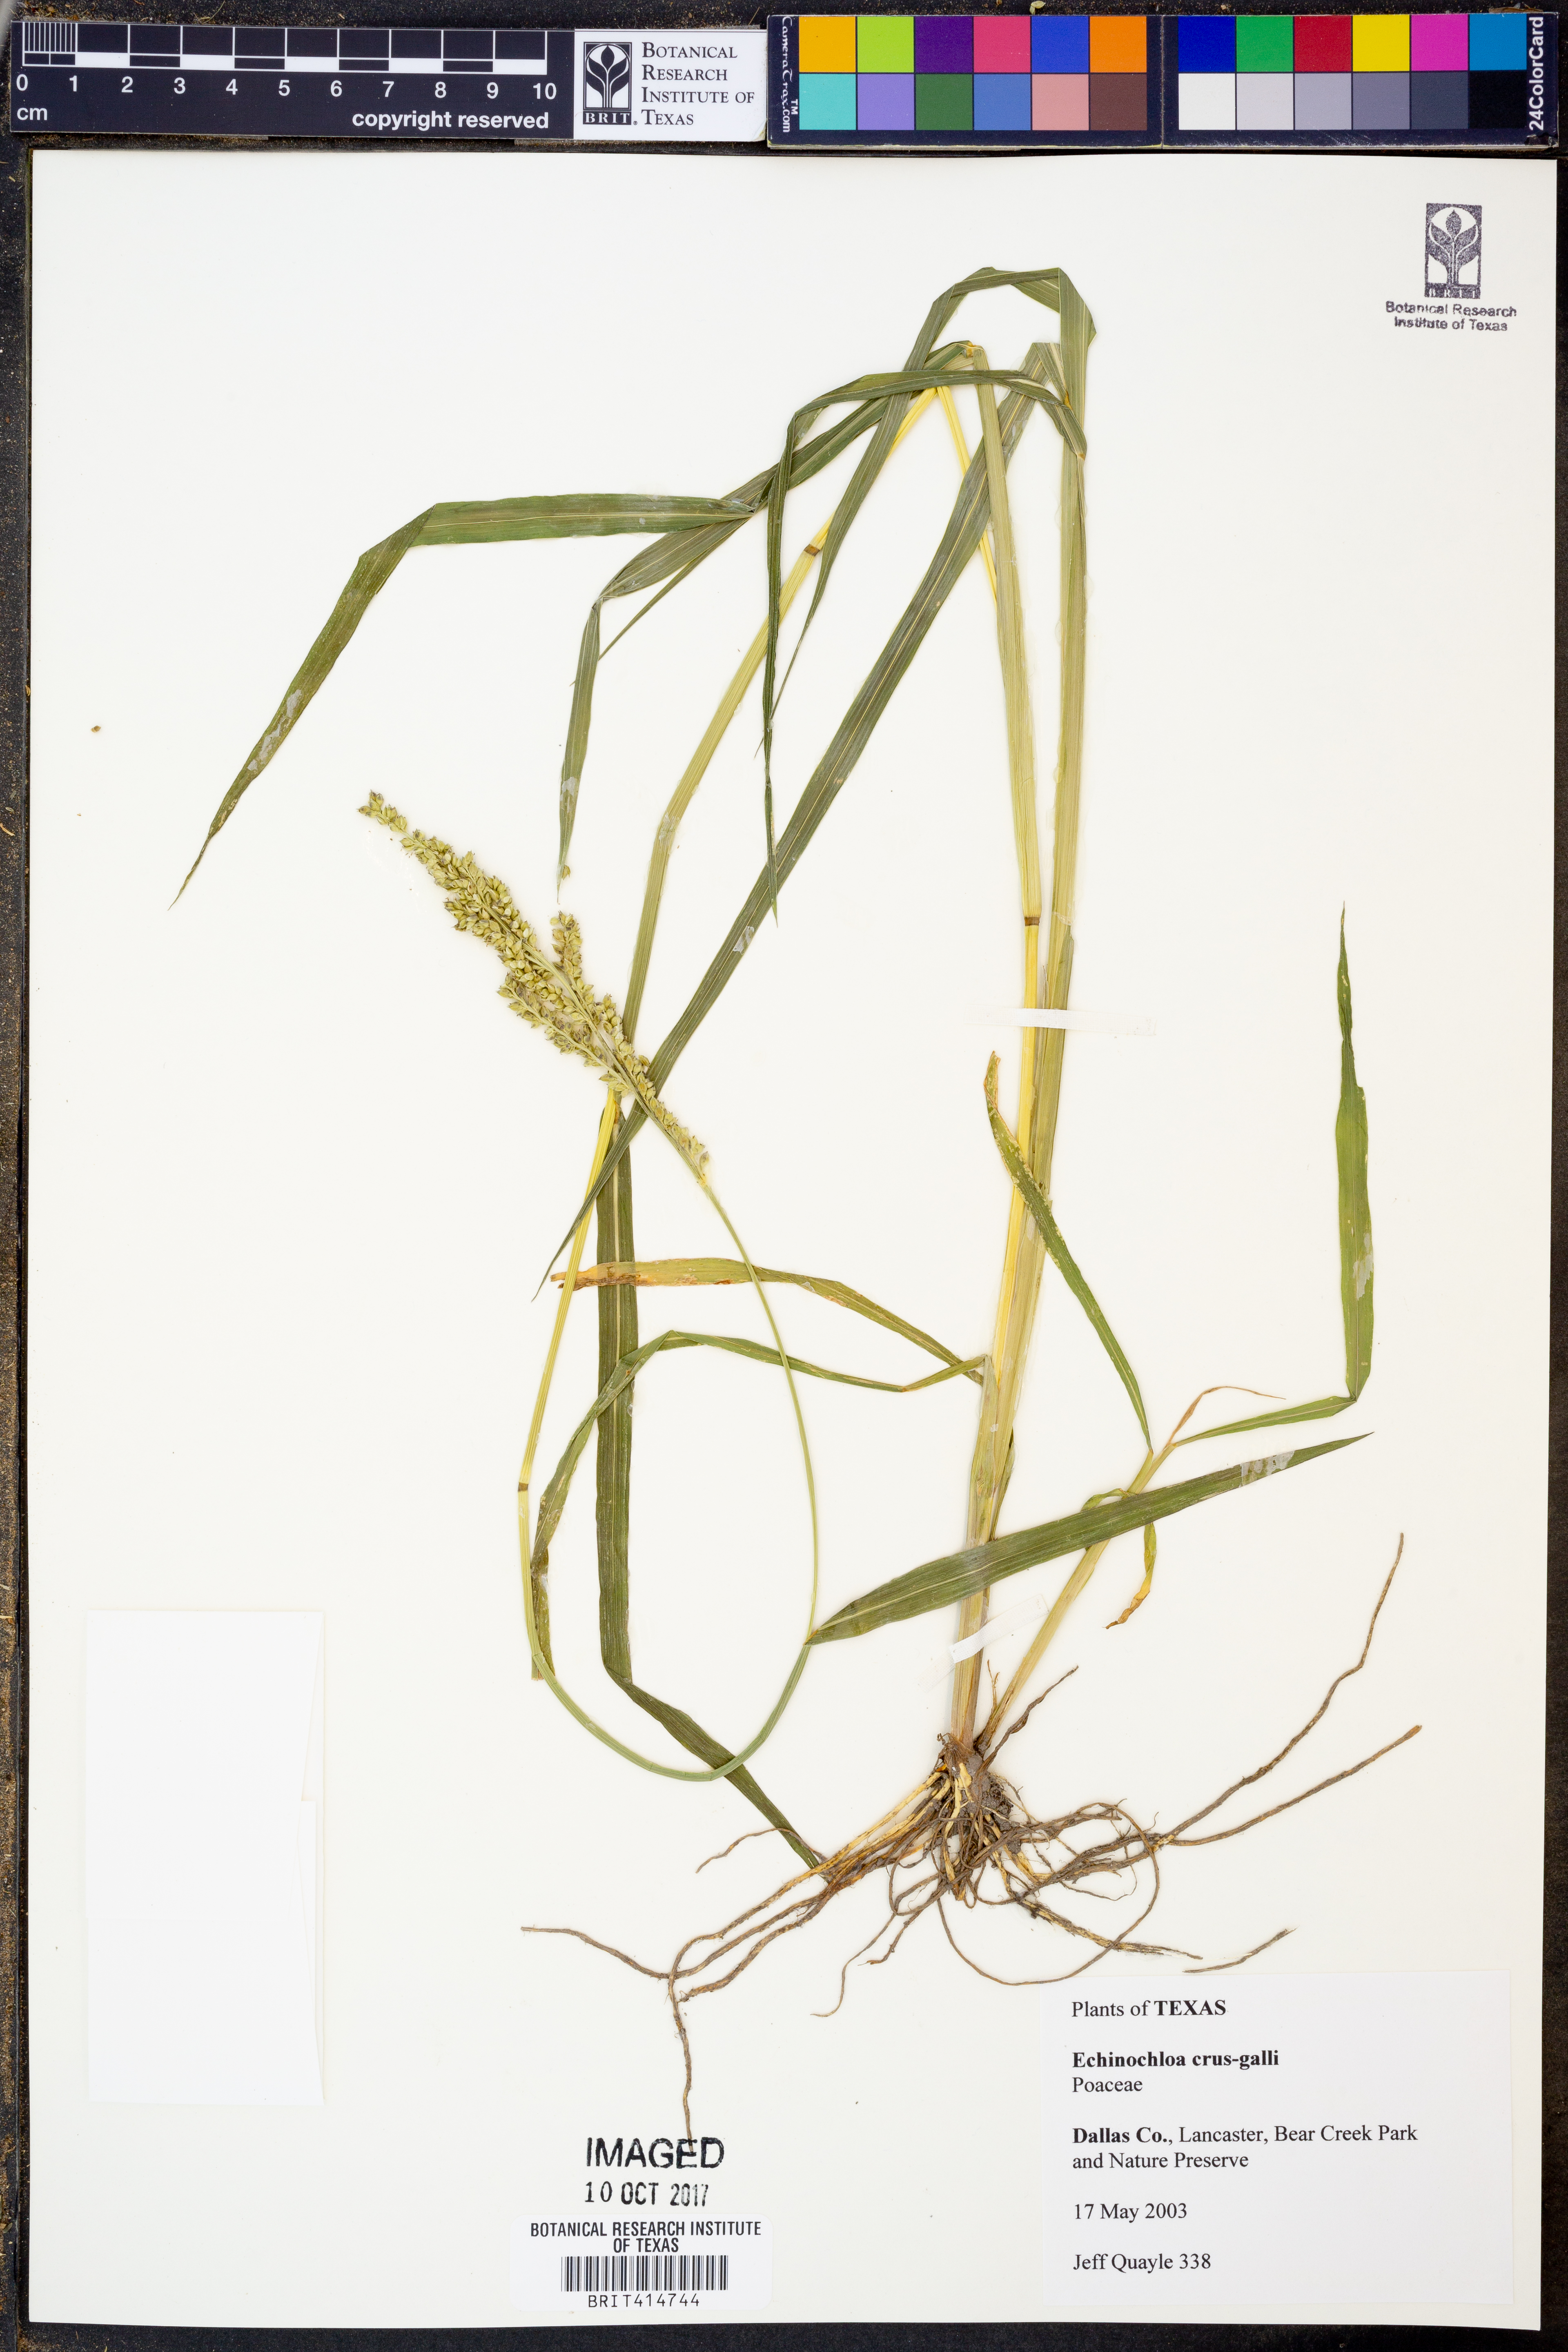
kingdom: Plantae
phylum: Tracheophyta
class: Liliopsida
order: Poales
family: Poaceae
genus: Echinochloa
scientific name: Echinochloa crus-galli
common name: Cockspur
